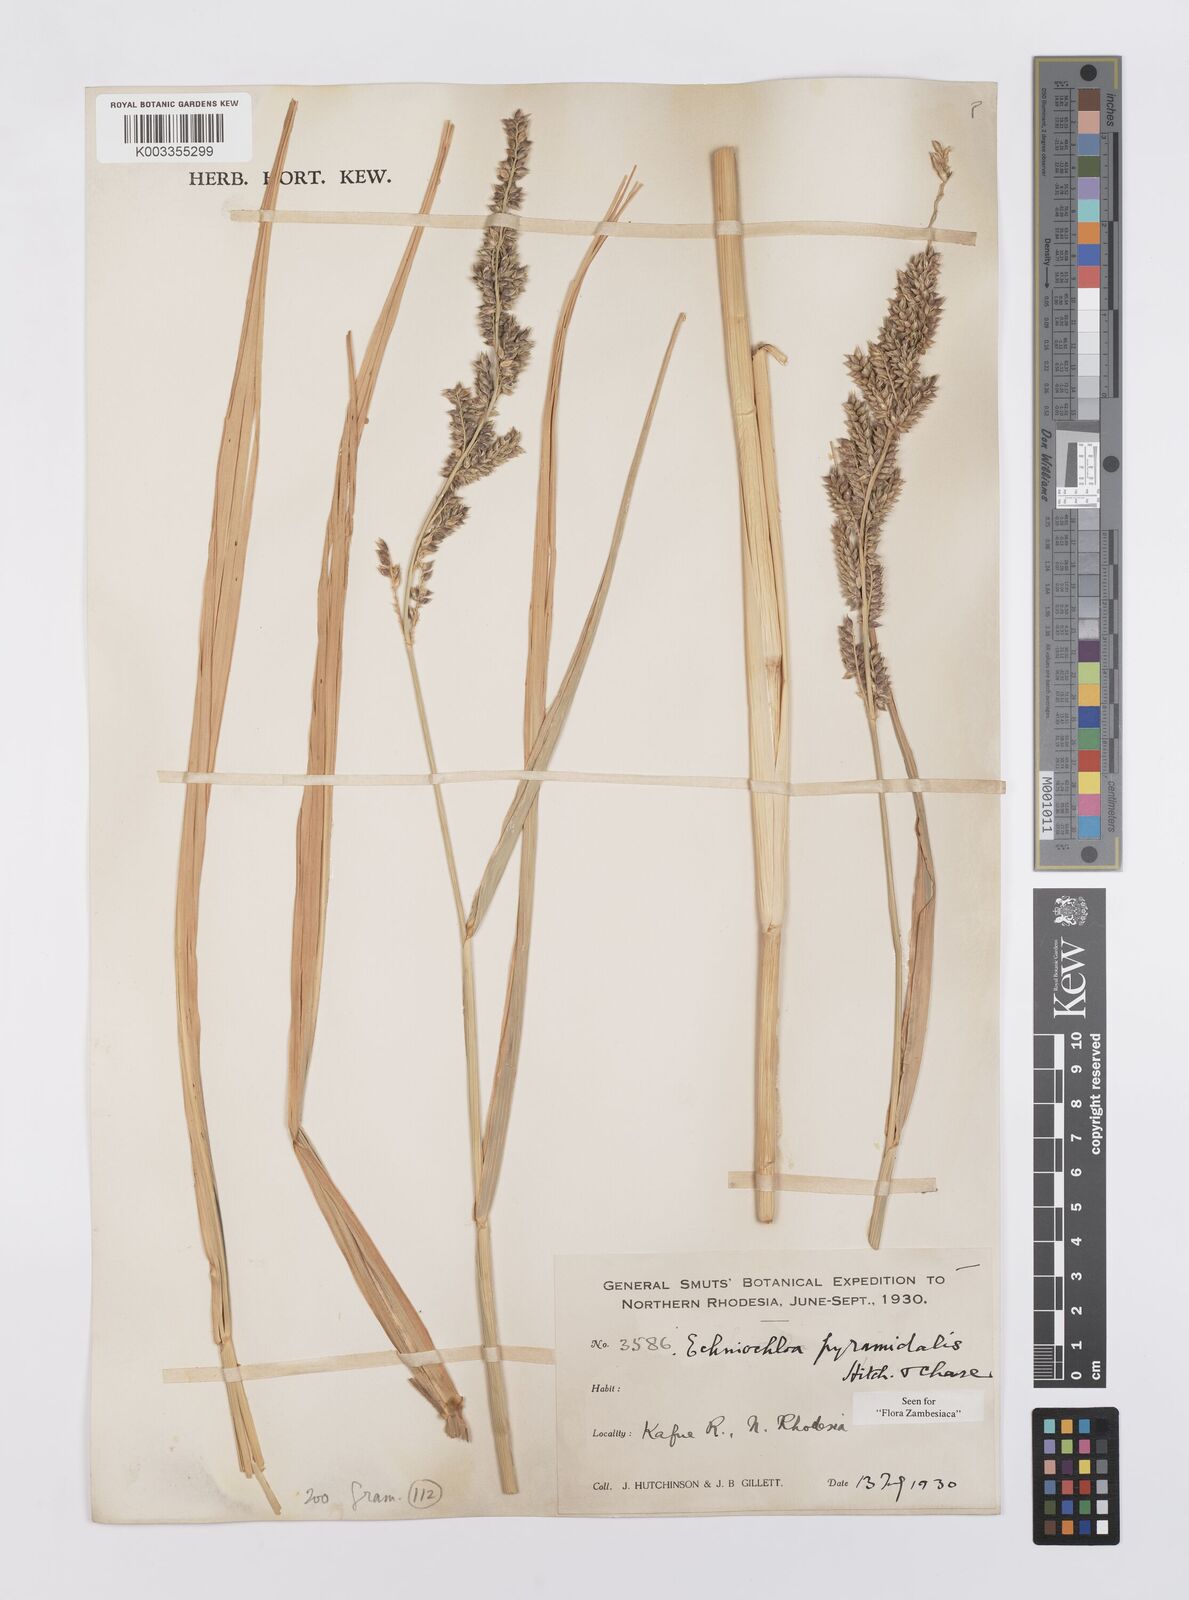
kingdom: Plantae
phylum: Tracheophyta
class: Liliopsida
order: Poales
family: Poaceae
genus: Echinochloa
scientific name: Echinochloa pyramidalis
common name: Antelope grass
